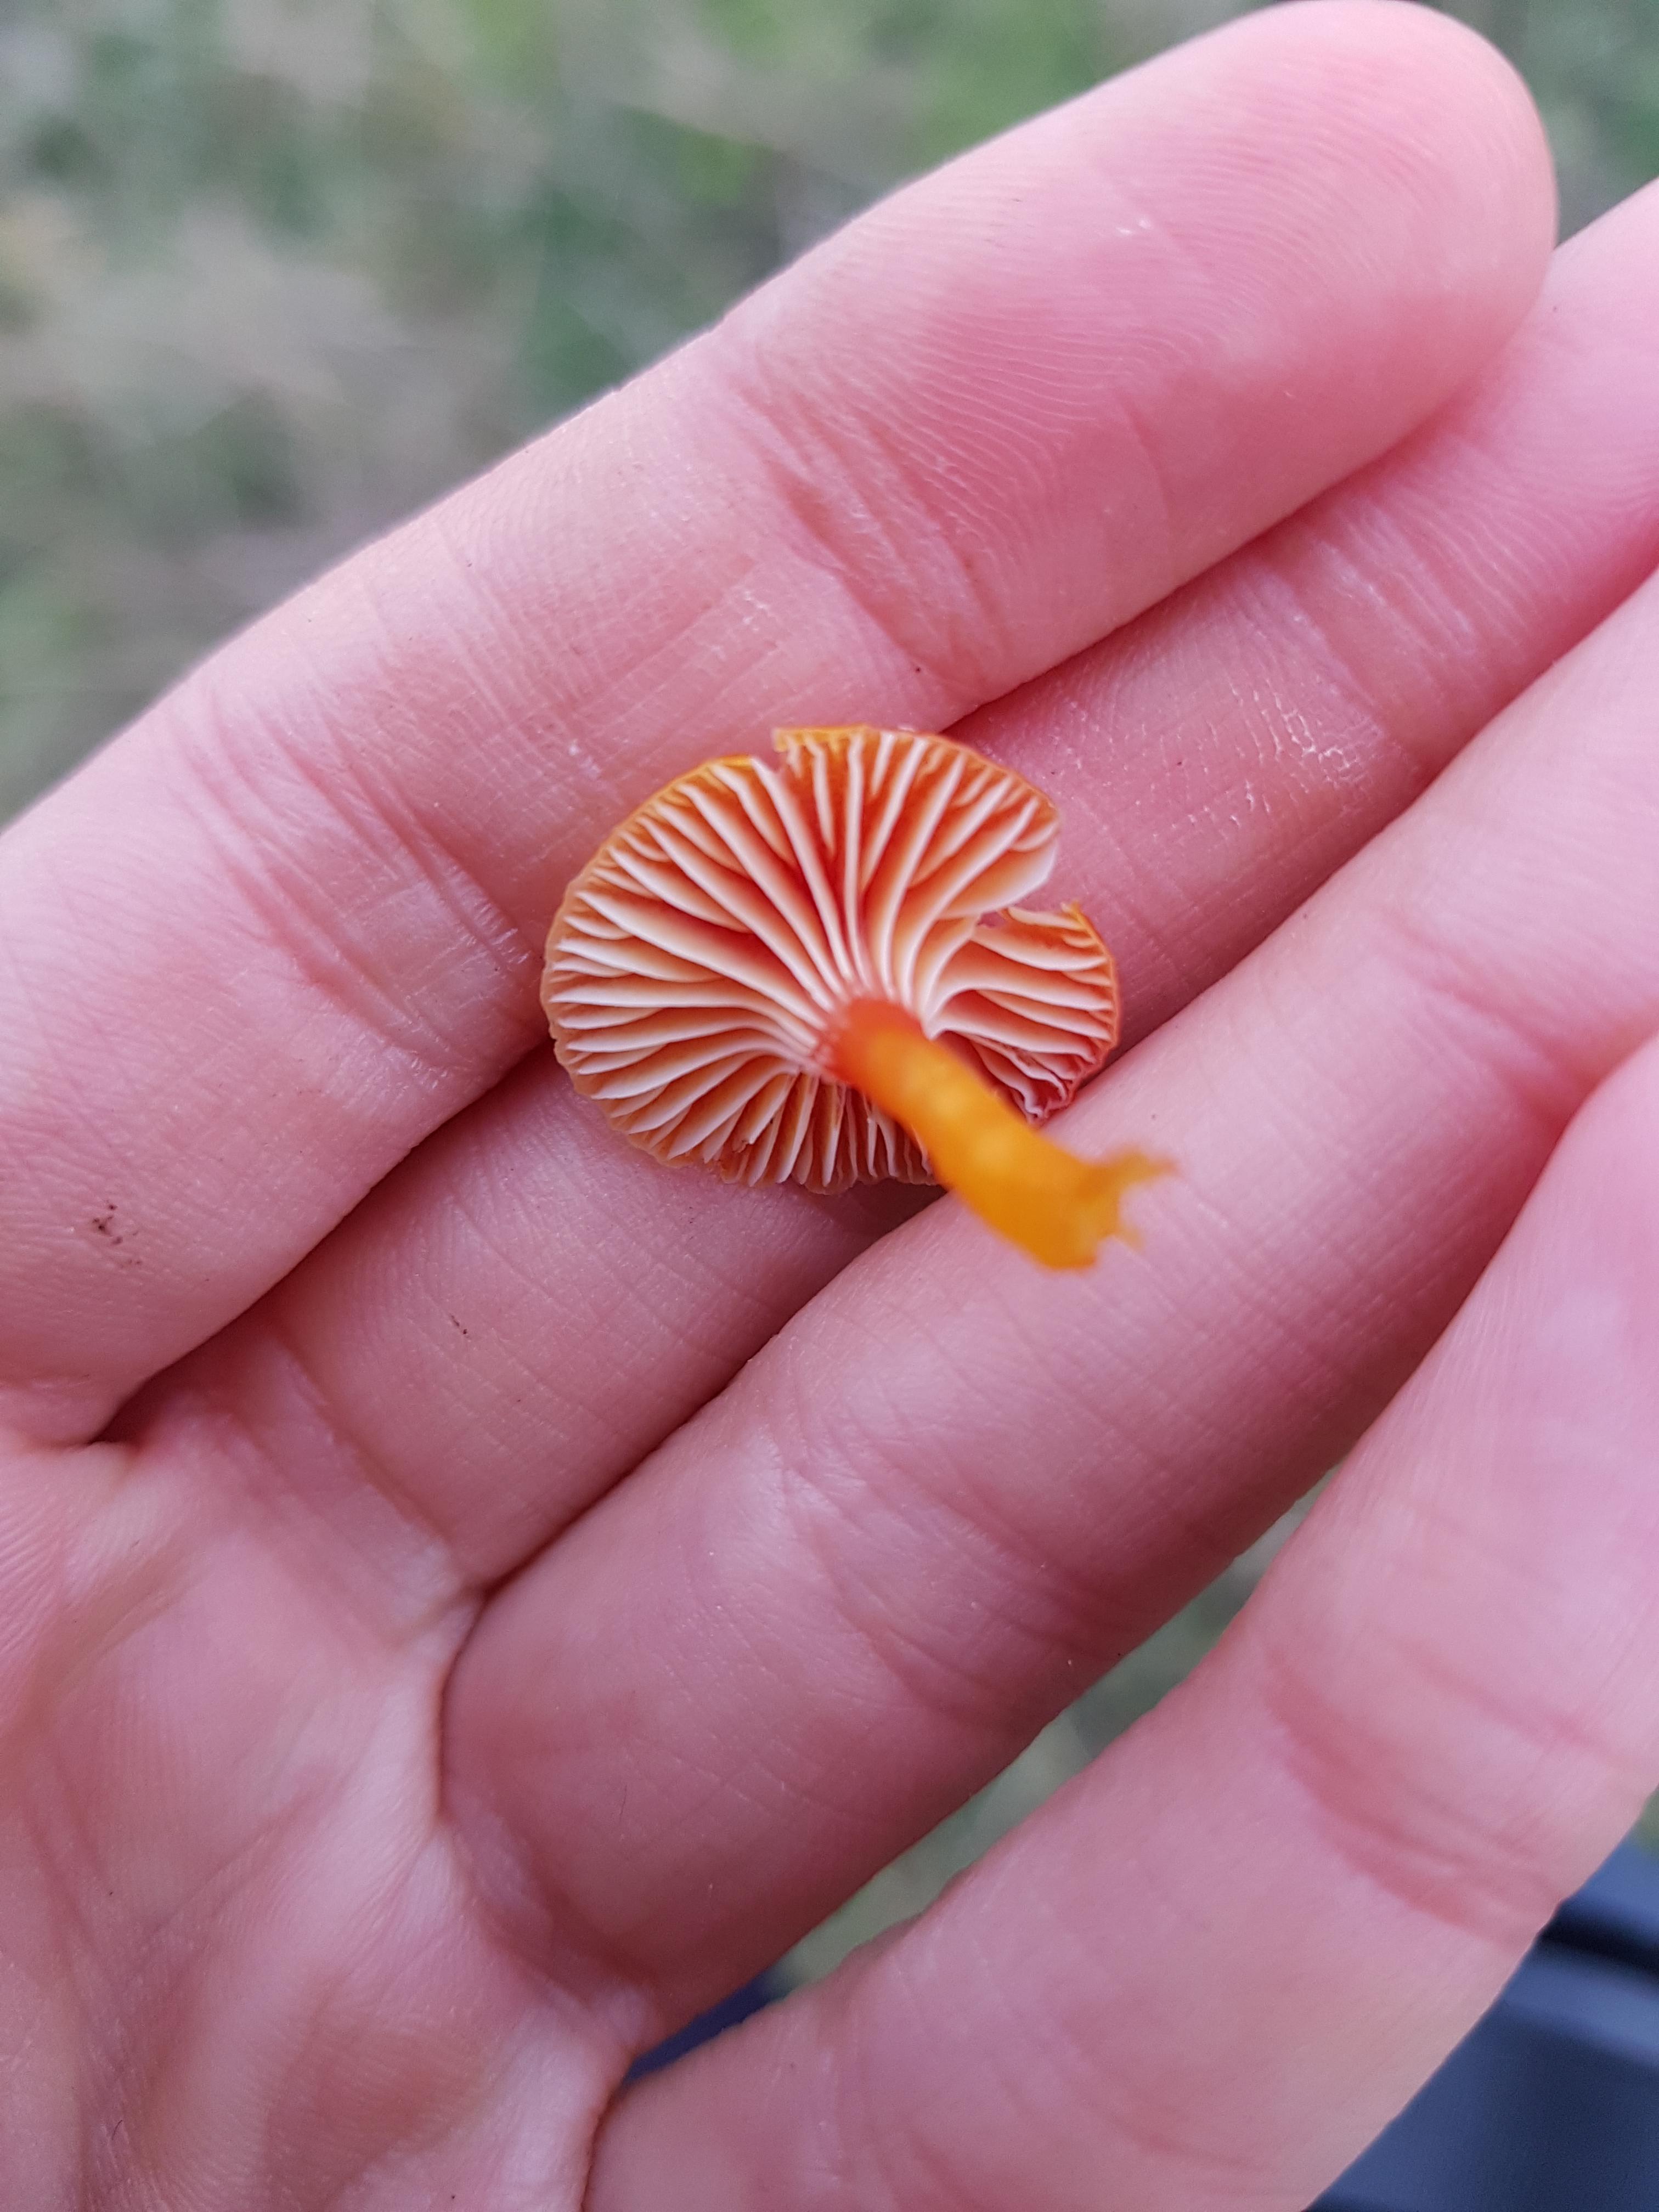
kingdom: Fungi
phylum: Basidiomycota
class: Agaricomycetes
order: Agaricales
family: Hygrophoraceae
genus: Hygrocybe
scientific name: Hygrocybe insipida
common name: liden vokshat
